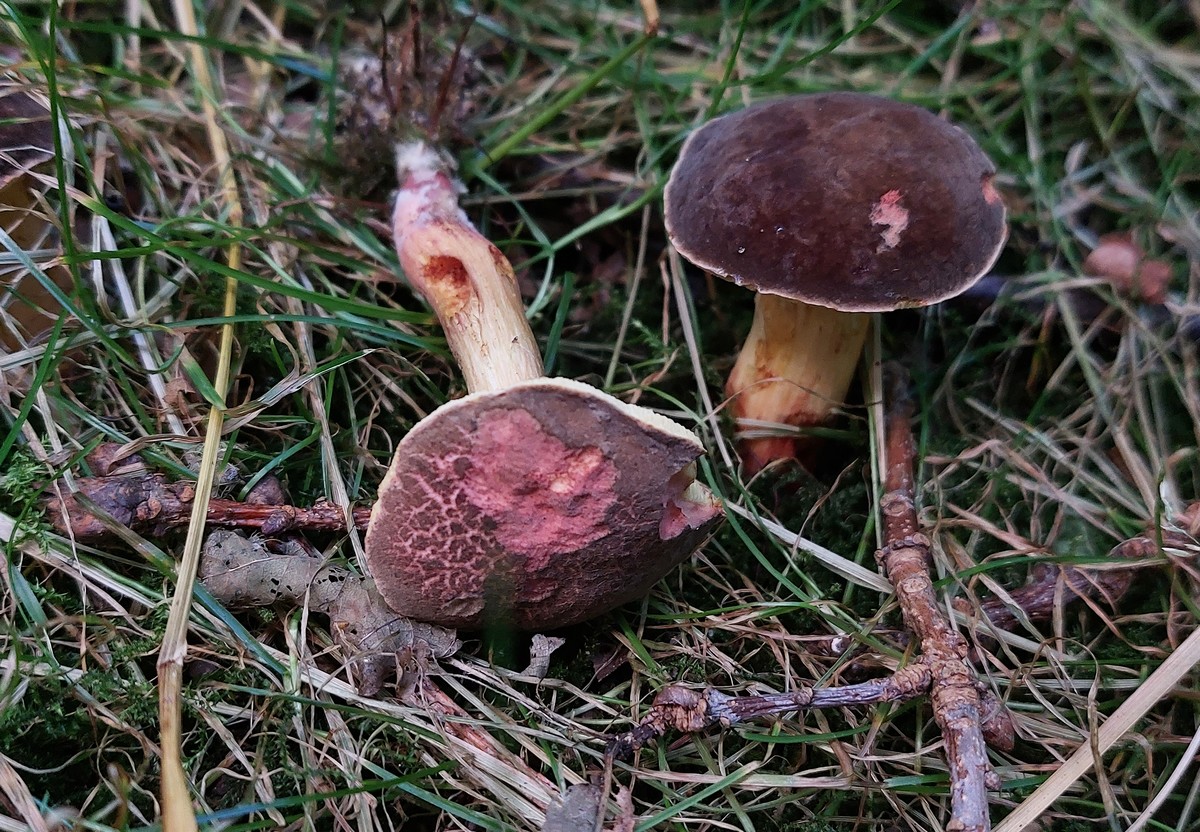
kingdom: Fungi
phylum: Basidiomycota
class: Agaricomycetes
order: Boletales
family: Boletaceae
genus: Xerocomellus
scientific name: Xerocomellus cisalpinus
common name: finsprukken rørhat
